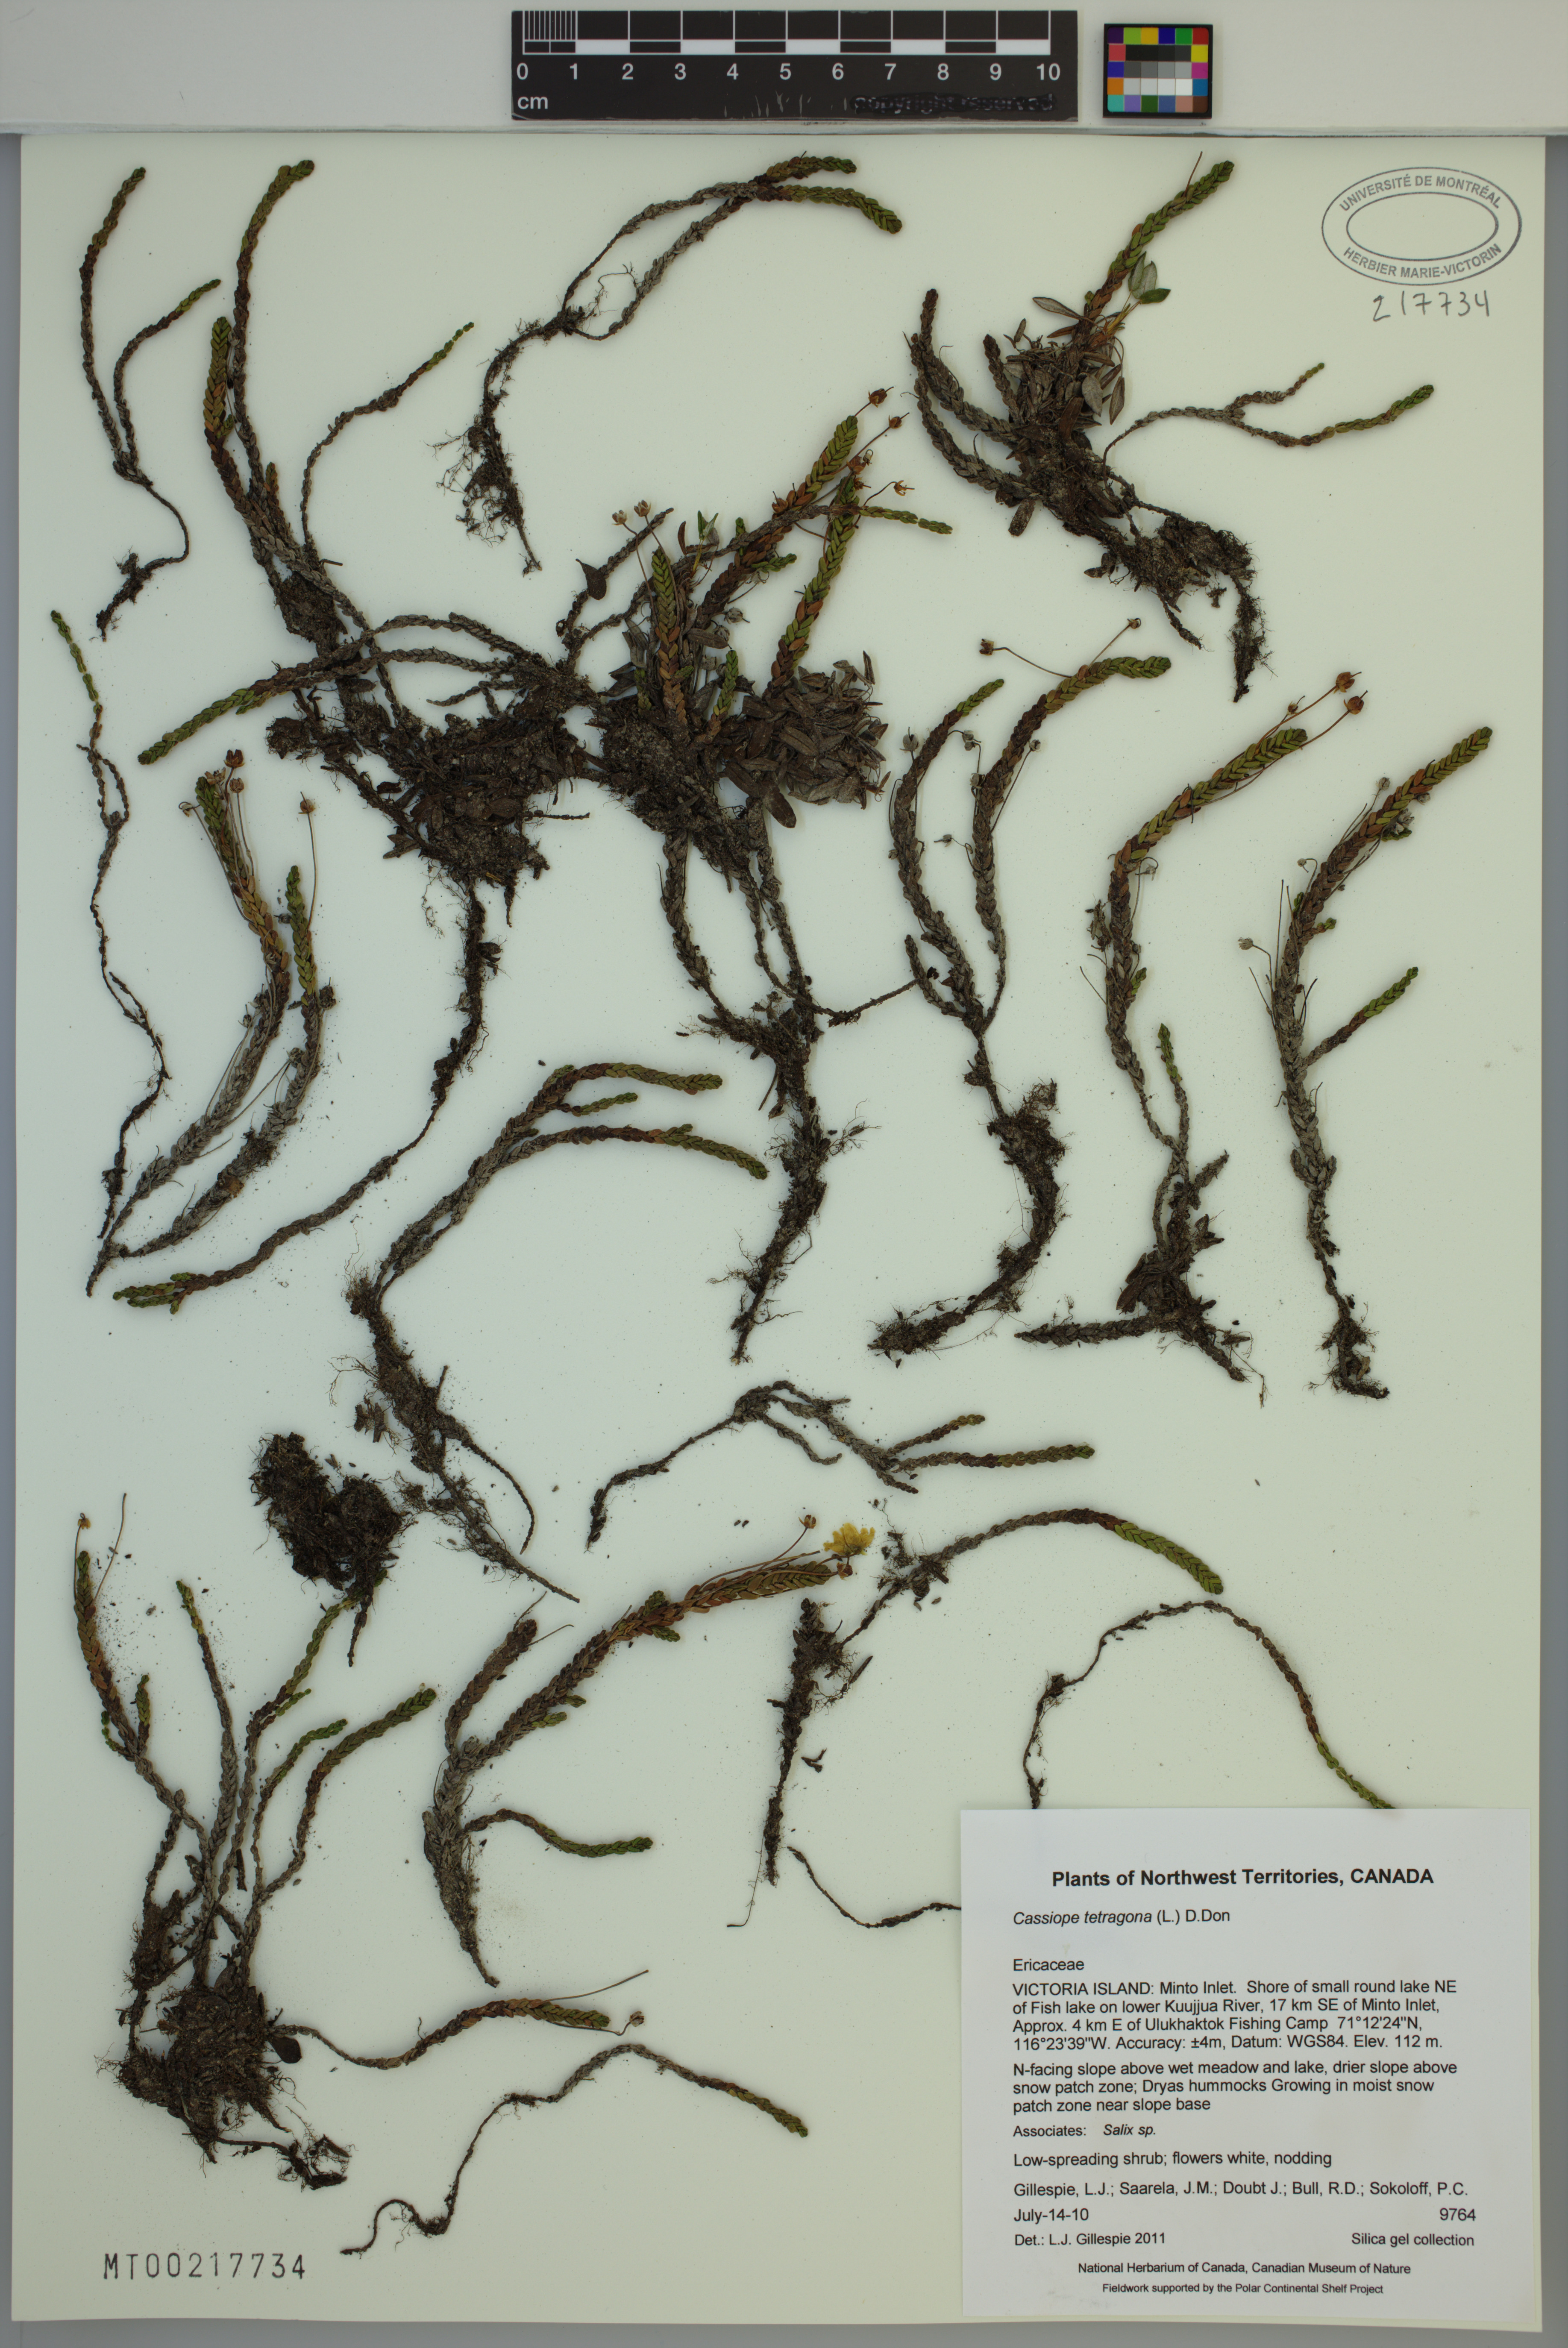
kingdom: Plantae
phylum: Tracheophyta
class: Magnoliopsida
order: Ericales
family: Ericaceae
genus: Cassiope
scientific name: Cassiope tetragona
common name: Arctic bell heather
